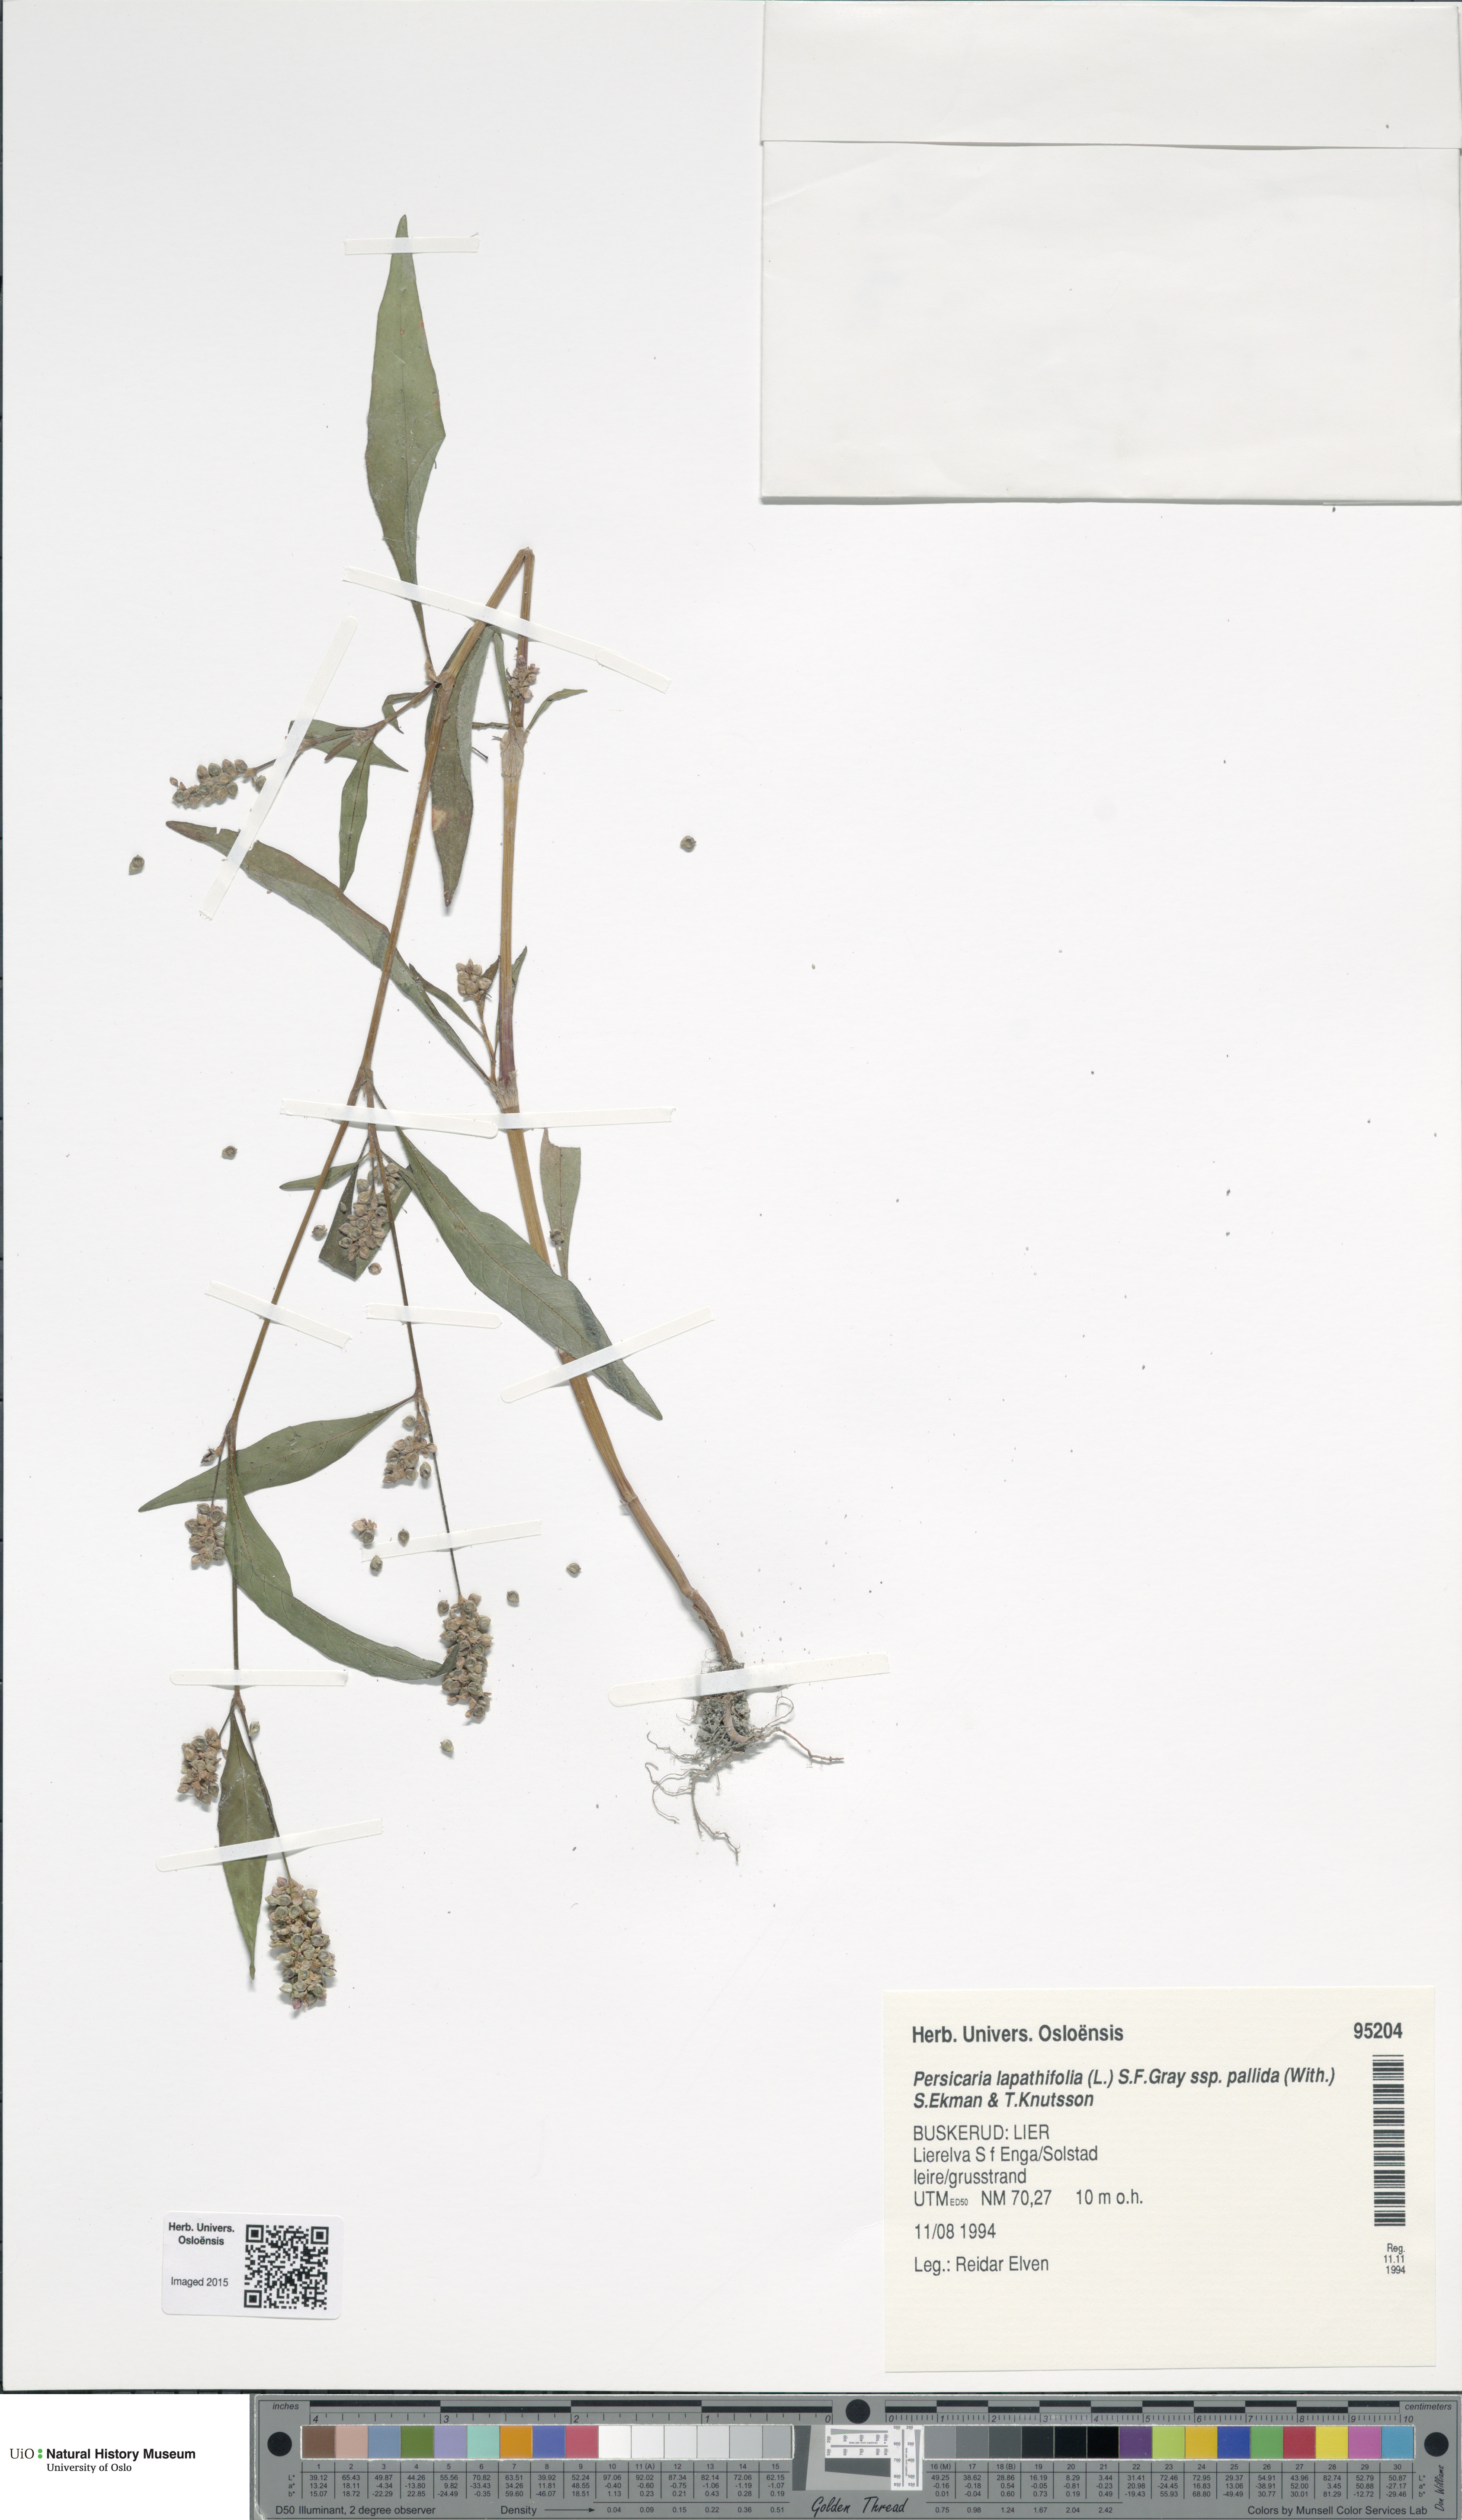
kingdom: Plantae
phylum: Tracheophyta
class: Magnoliopsida
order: Caryophyllales
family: Polygonaceae
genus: Persicaria
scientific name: Persicaria lapathifolia
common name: Curlytop knotweed
